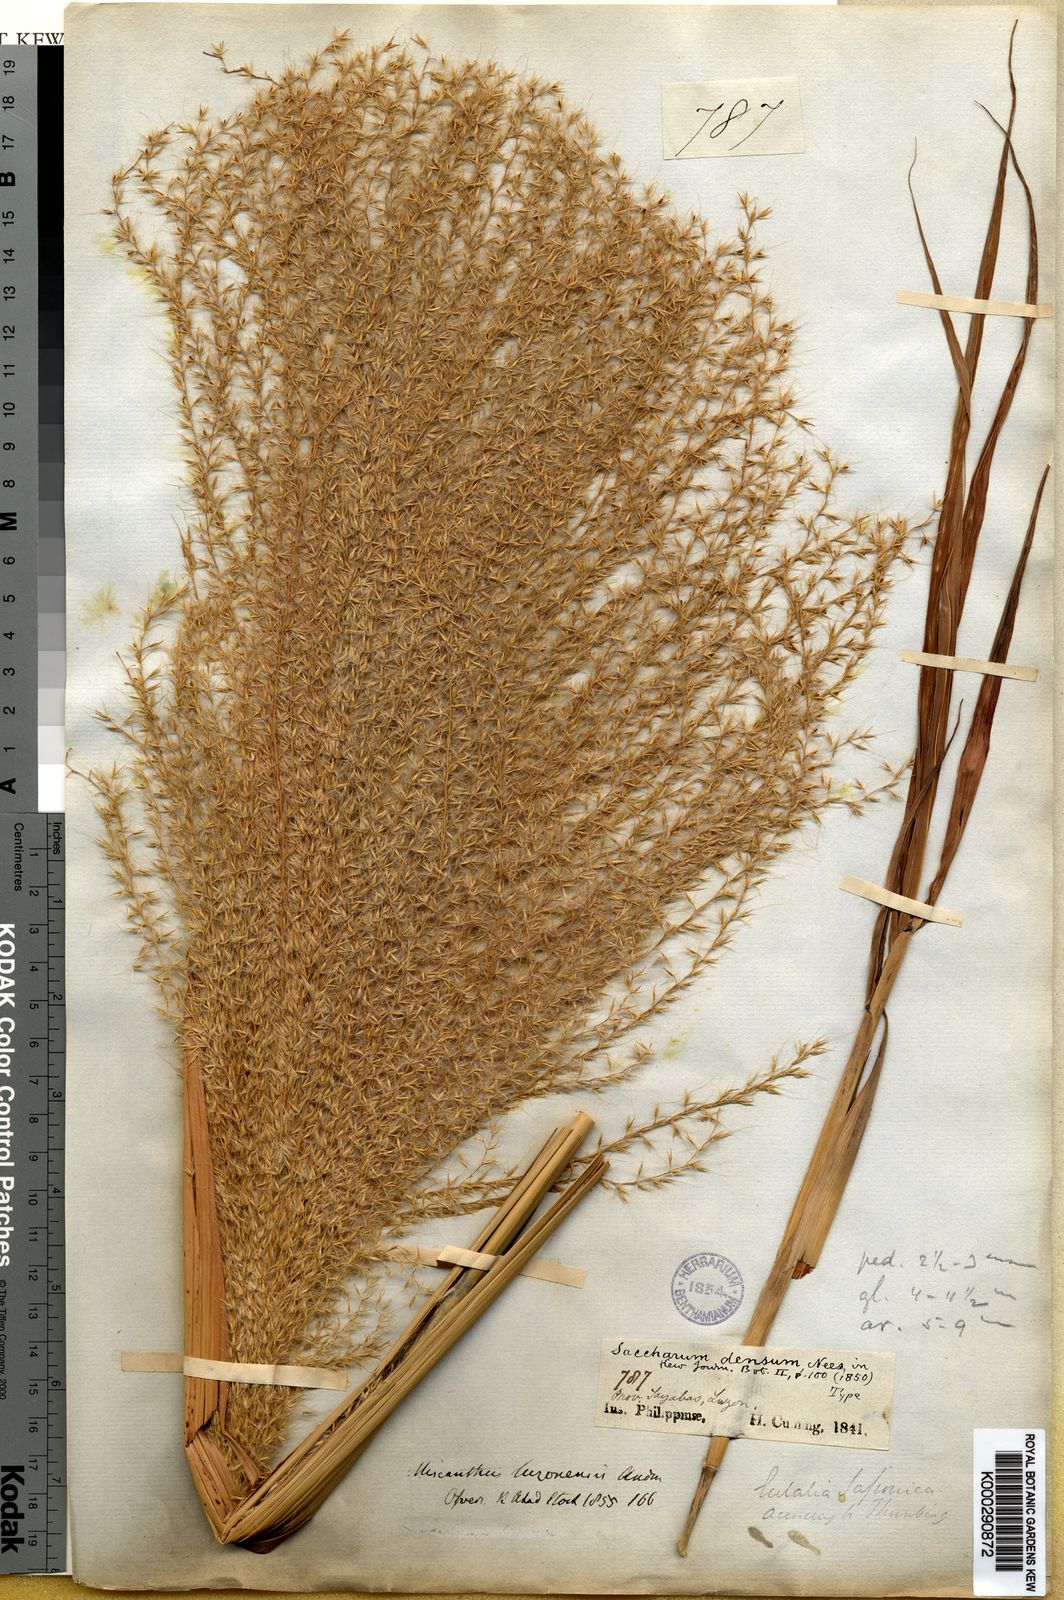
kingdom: Plantae
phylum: Tracheophyta
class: Liliopsida
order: Poales
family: Poaceae
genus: Miscanthus
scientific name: Miscanthus floridulus
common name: Pacific island silvergrass
